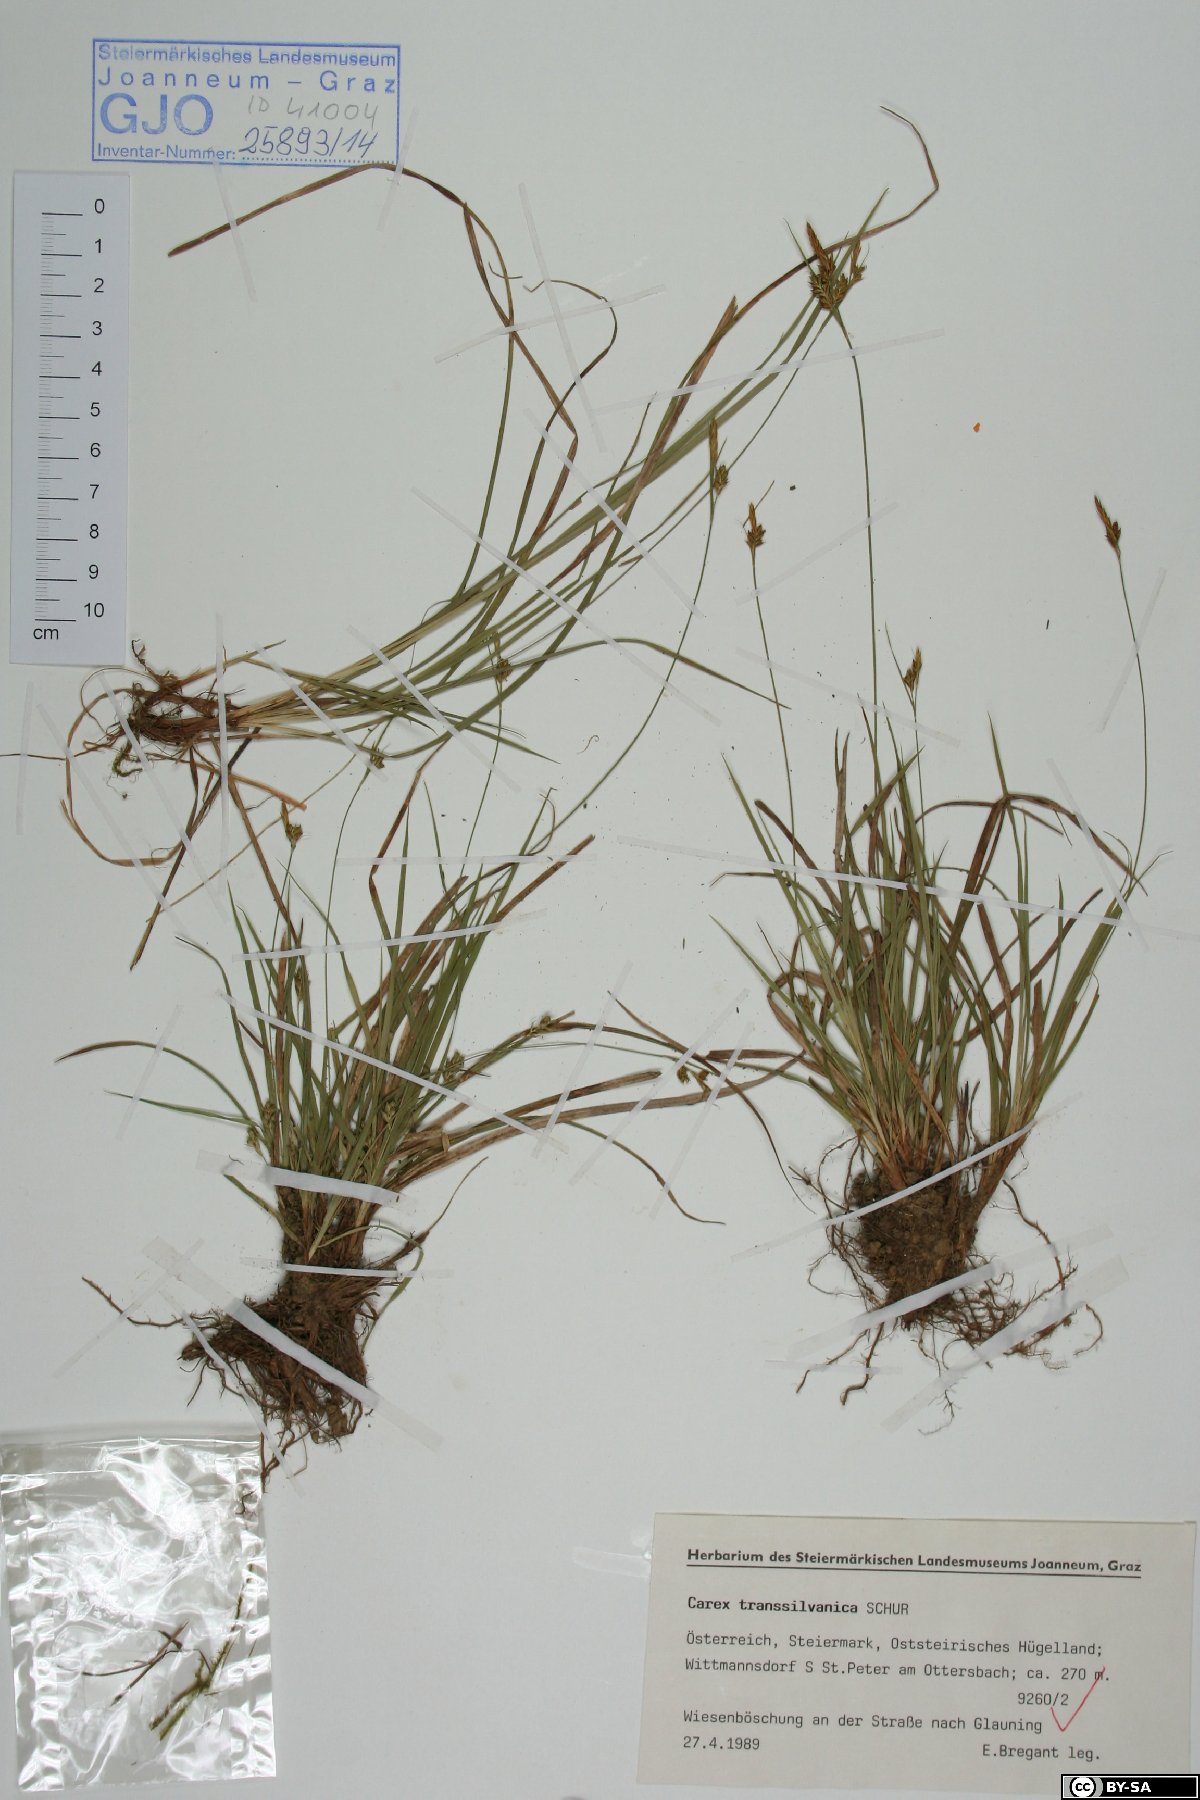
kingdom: Plantae
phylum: Tracheophyta
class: Liliopsida
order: Poales
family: Cyperaceae
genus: Carex
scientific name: Carex depressa
